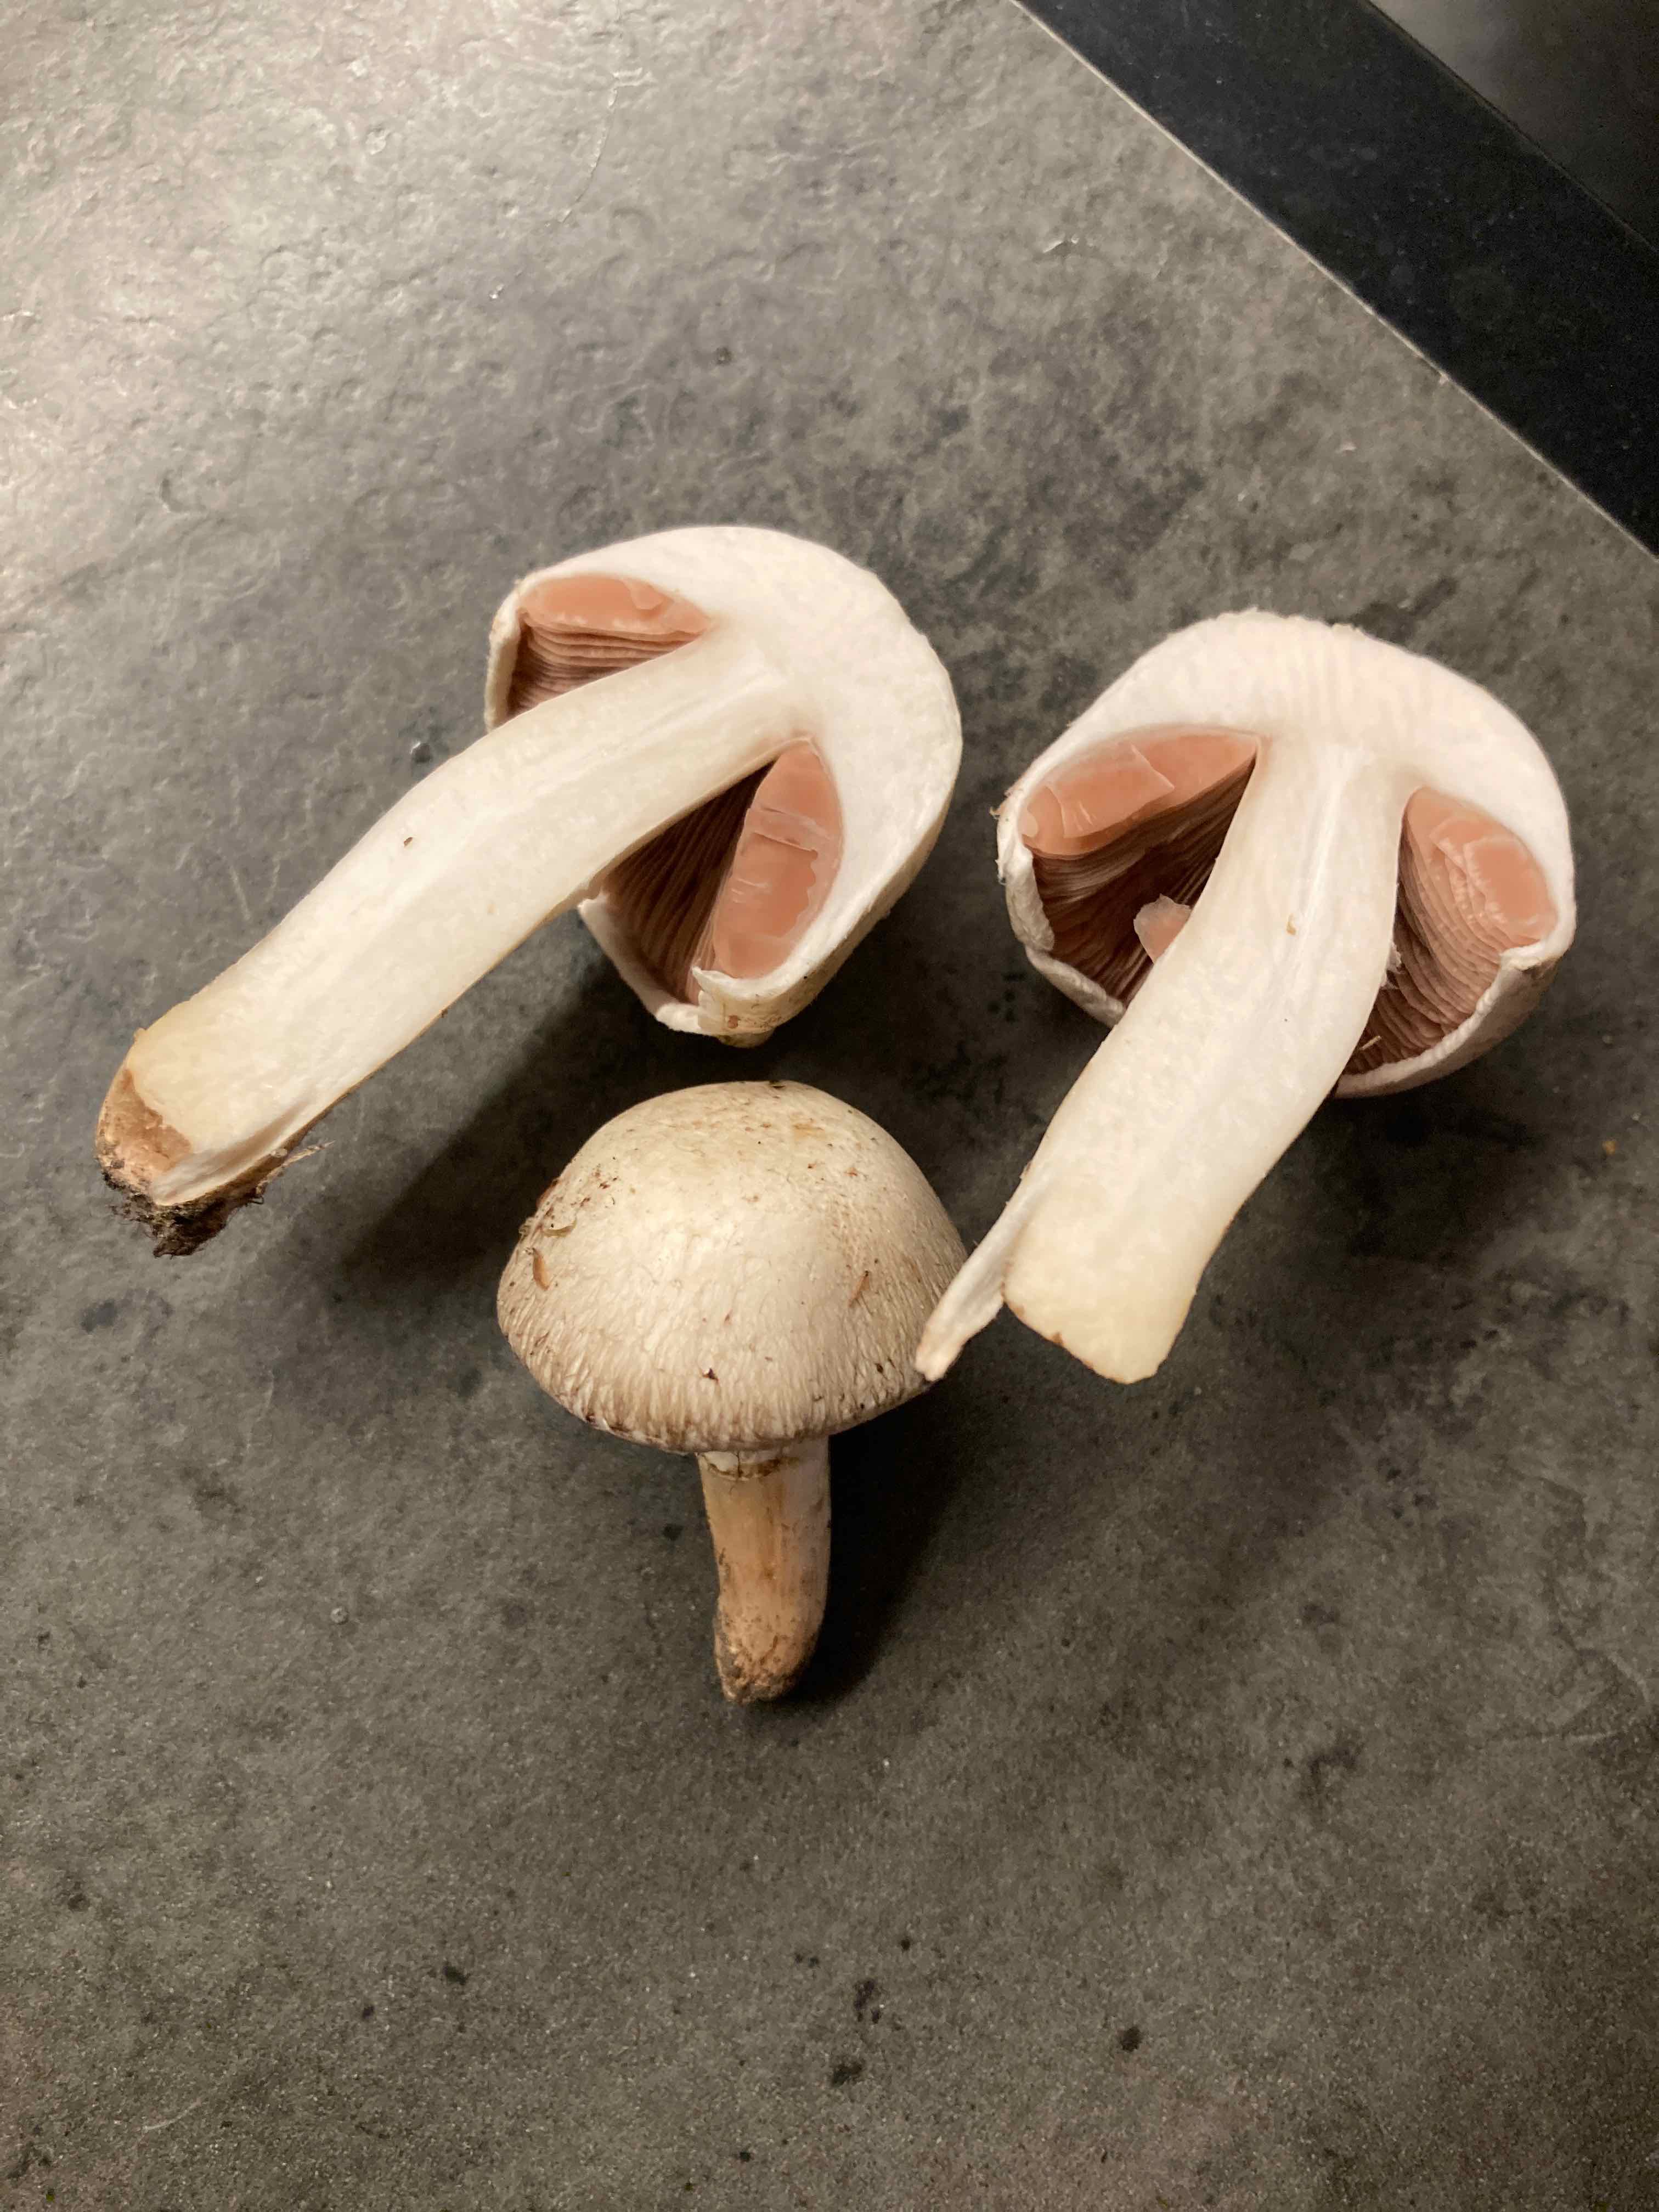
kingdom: Fungi
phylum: Basidiomycota
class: Agaricomycetes
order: Agaricales
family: Agaricaceae
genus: Agaricus
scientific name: Agaricus campestris
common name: mark-champignon
